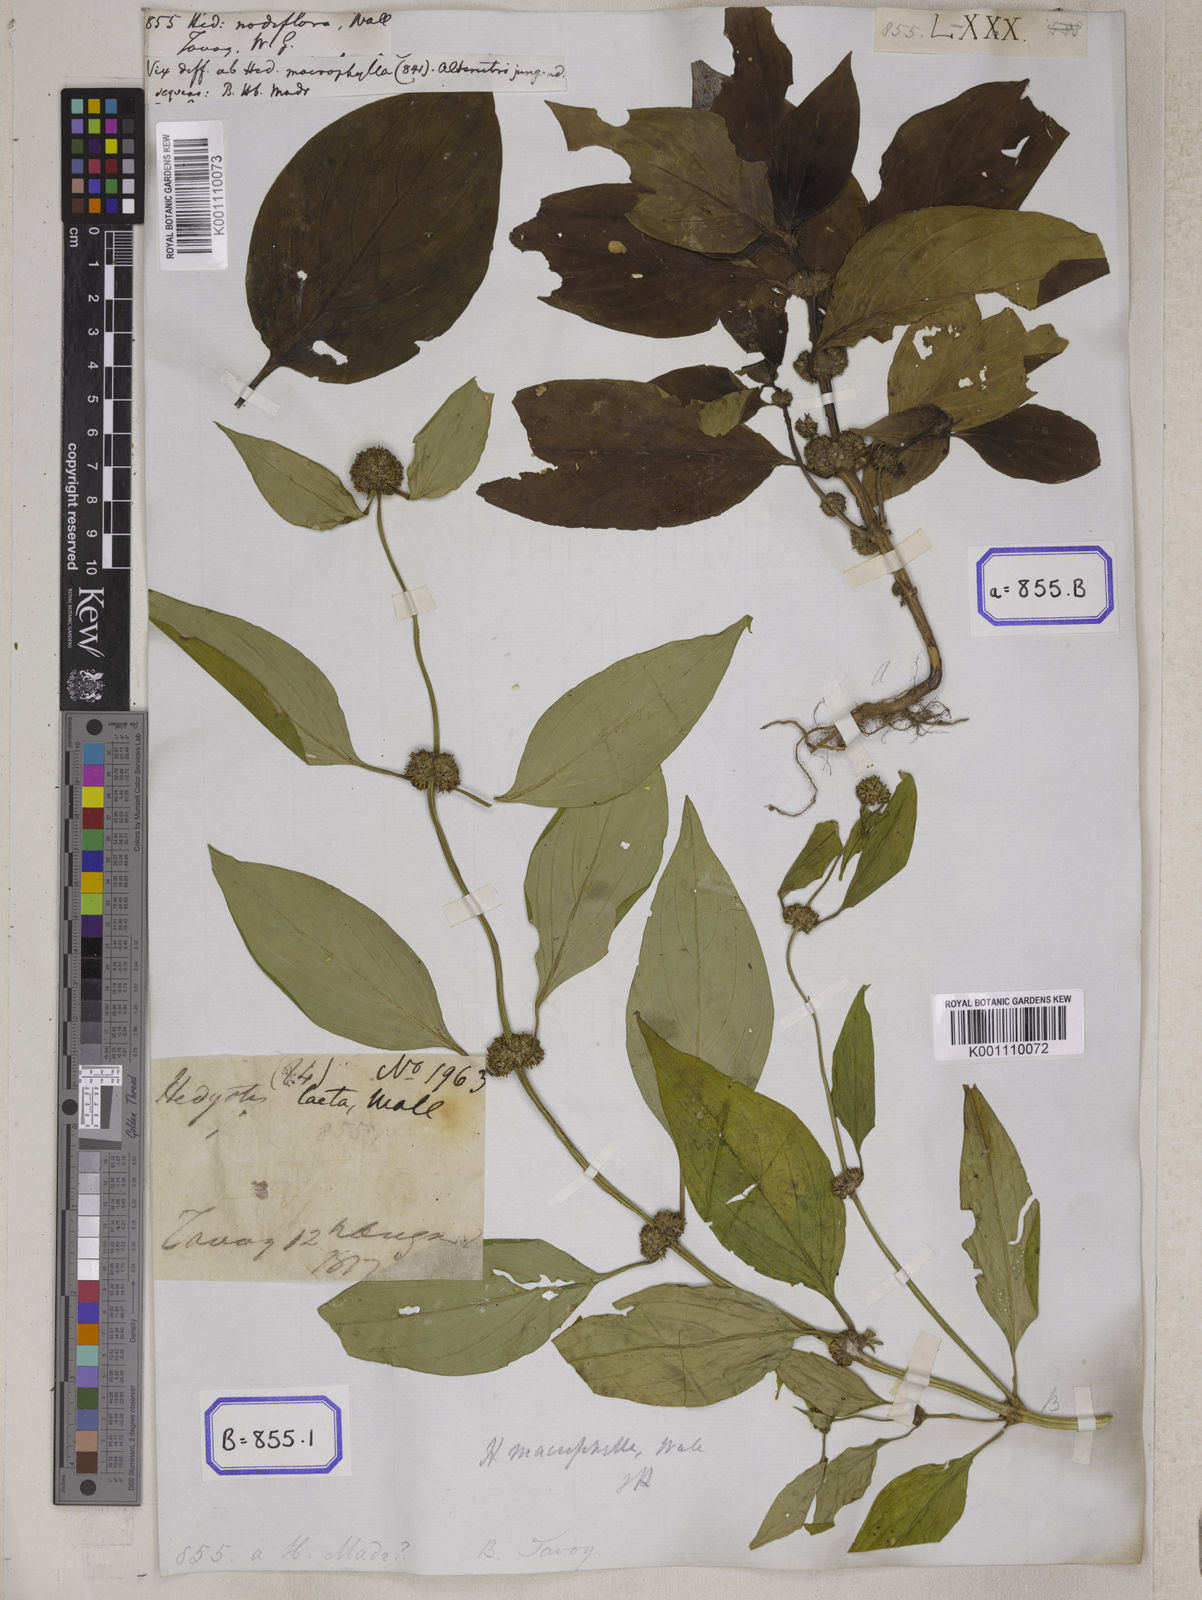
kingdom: Plantae
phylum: Tracheophyta
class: Magnoliopsida
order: Gentianales
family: Rubiaceae
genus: Hedyotis
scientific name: Hedyotis
